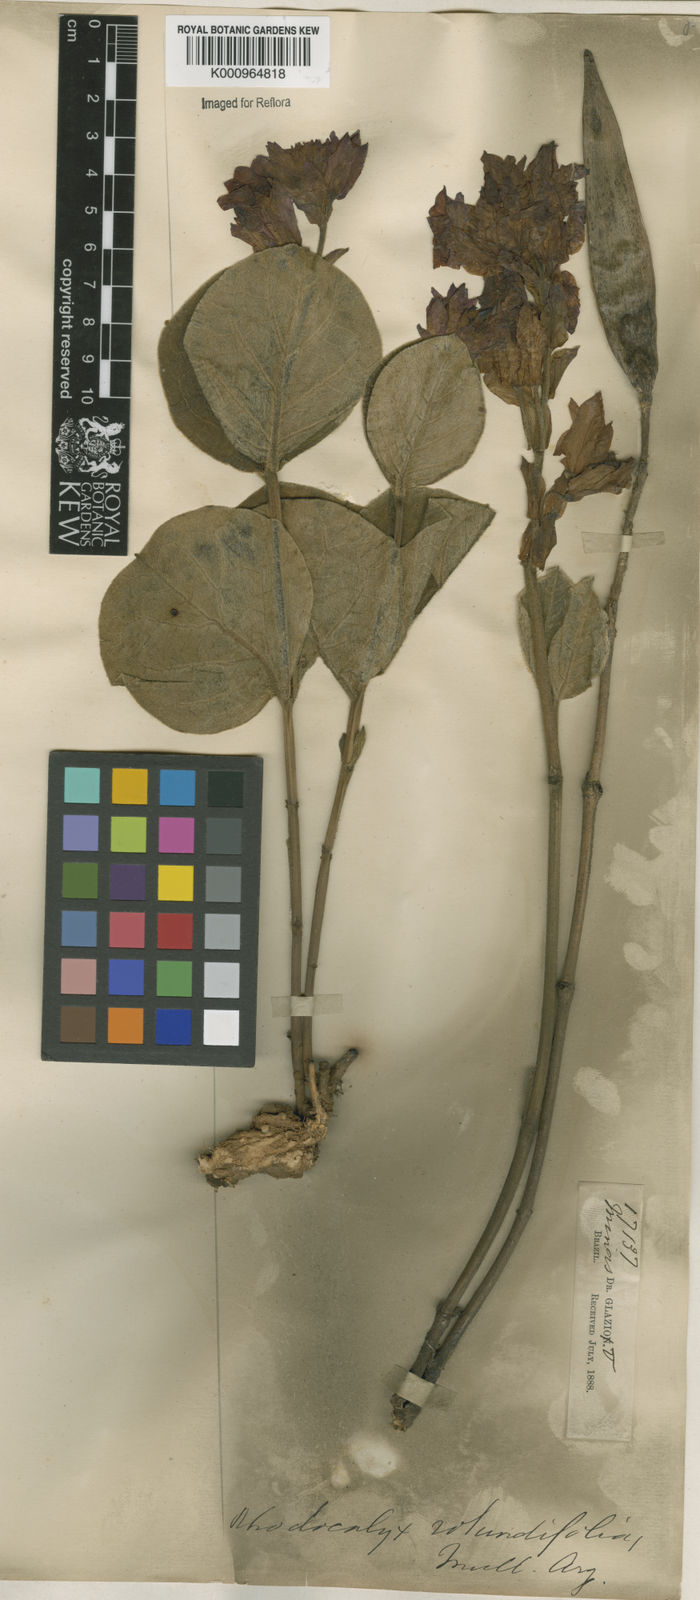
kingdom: Plantae
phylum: Tracheophyta
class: Magnoliopsida
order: Gentianales
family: Apocynaceae
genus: Rhodocalyx
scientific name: Rhodocalyx
